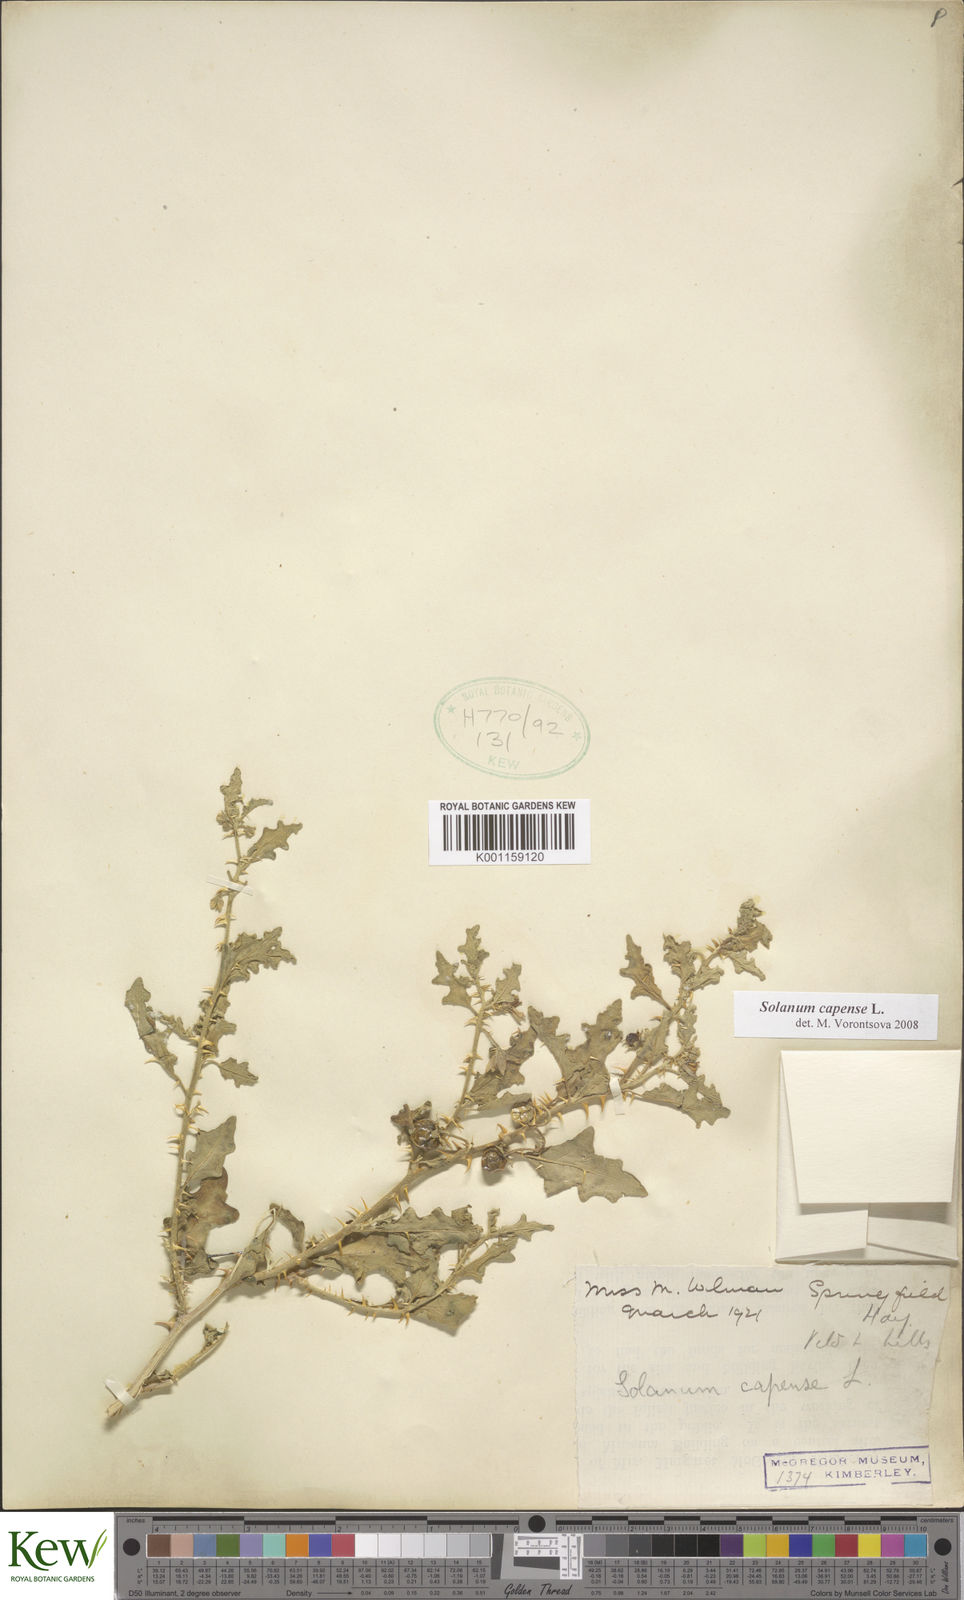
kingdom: Plantae
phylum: Tracheophyta
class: Magnoliopsida
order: Solanales
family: Solanaceae
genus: Solanum
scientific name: Solanum capense
